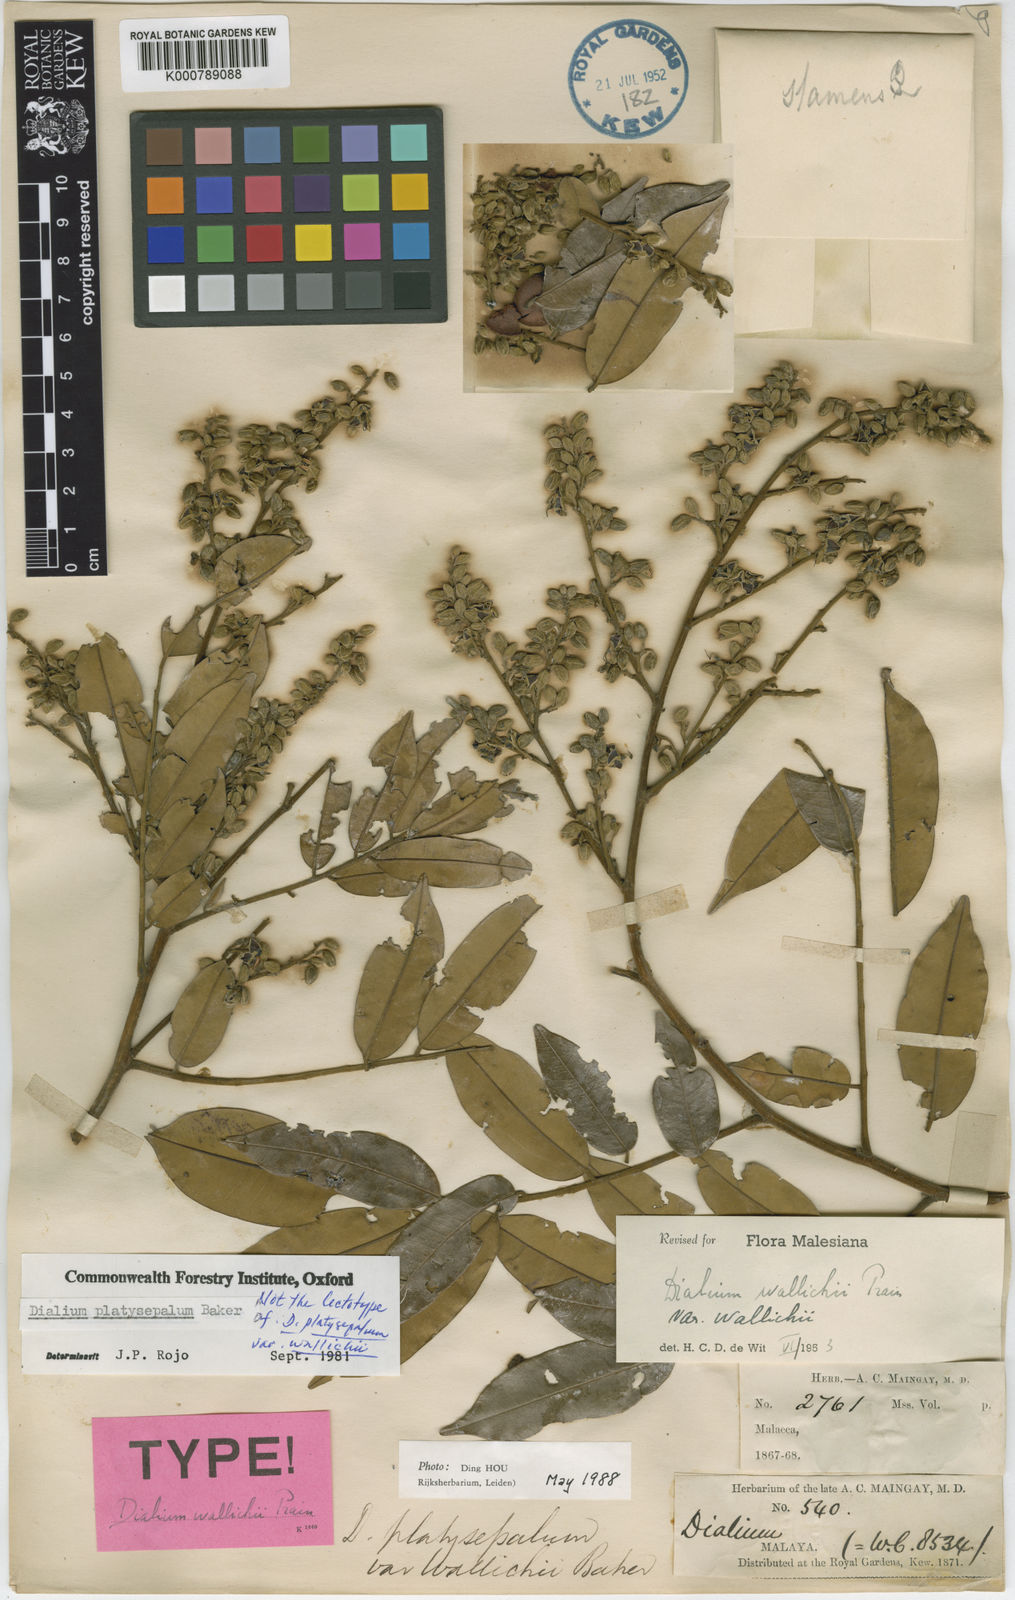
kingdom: Plantae
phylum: Tracheophyta
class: Magnoliopsida
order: Fabales
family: Fabaceae
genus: Dialium
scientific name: Dialium platysepalum
